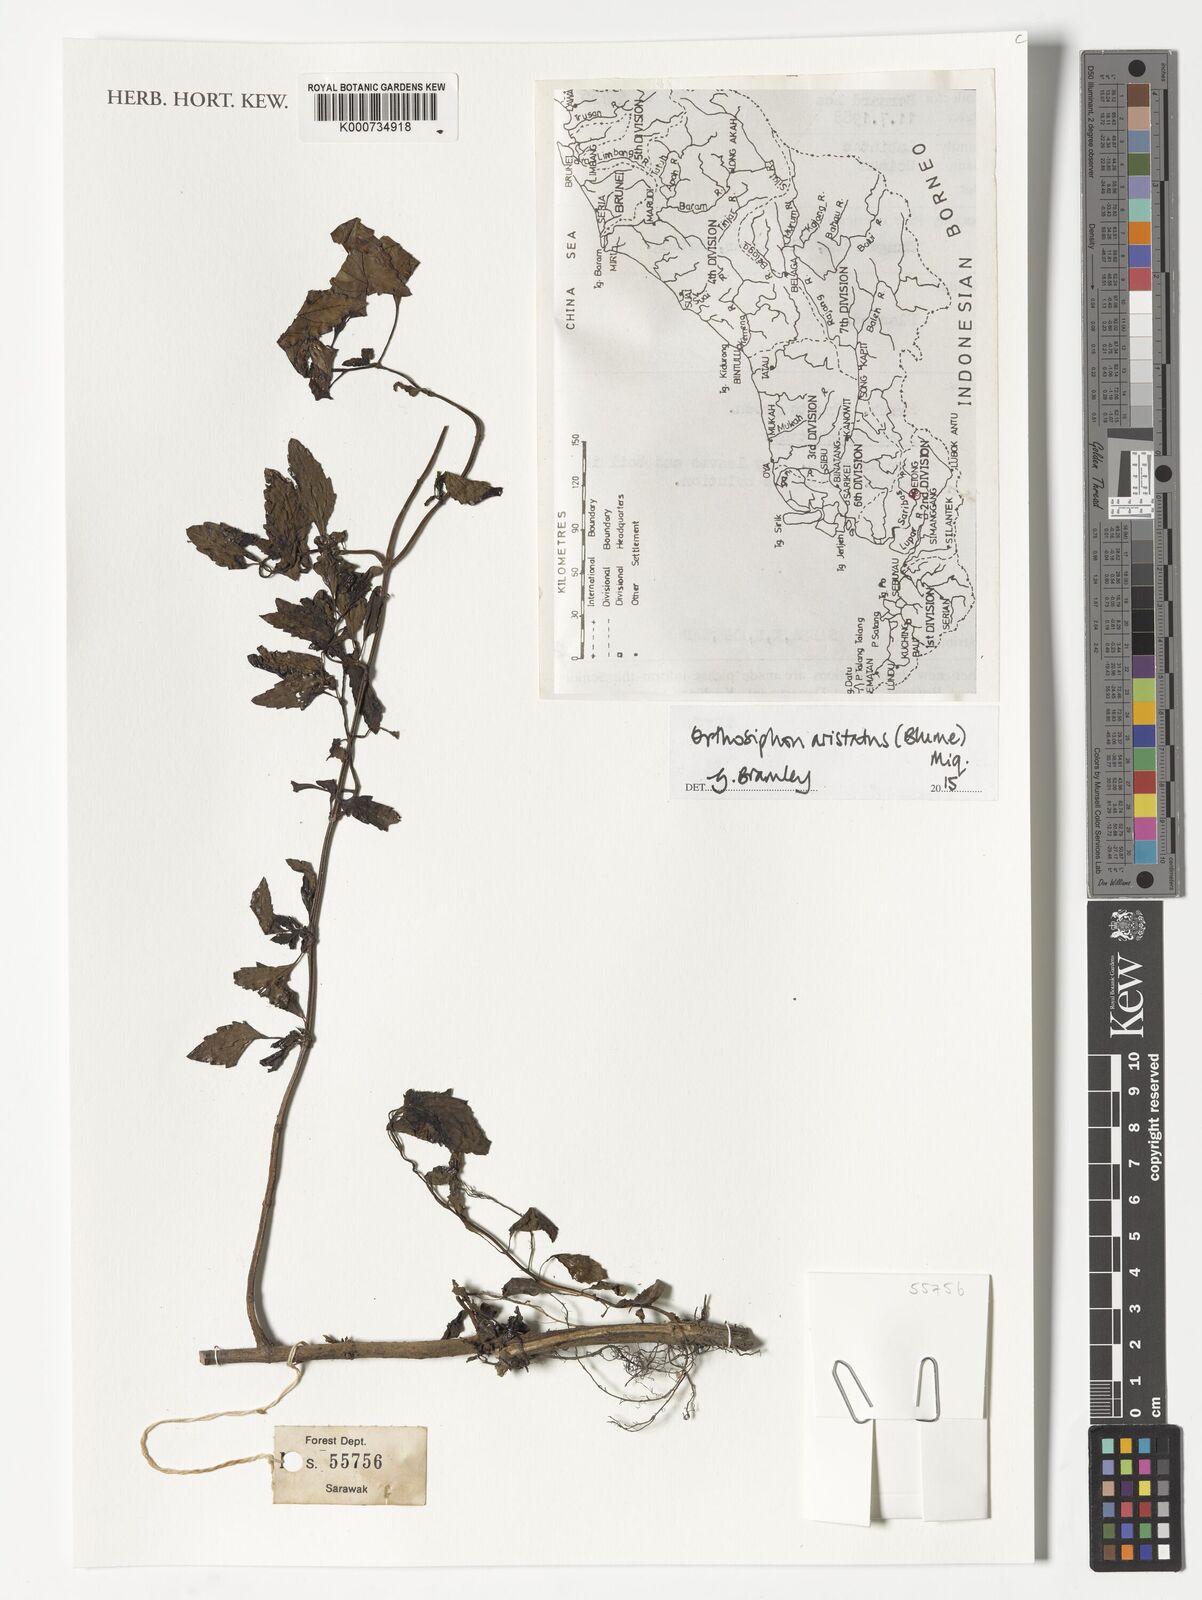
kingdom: Plantae
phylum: Tracheophyta
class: Magnoliopsida
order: Lamiales
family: Lamiaceae
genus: Orthosiphon
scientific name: Orthosiphon aristatus
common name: Whiskerplant
